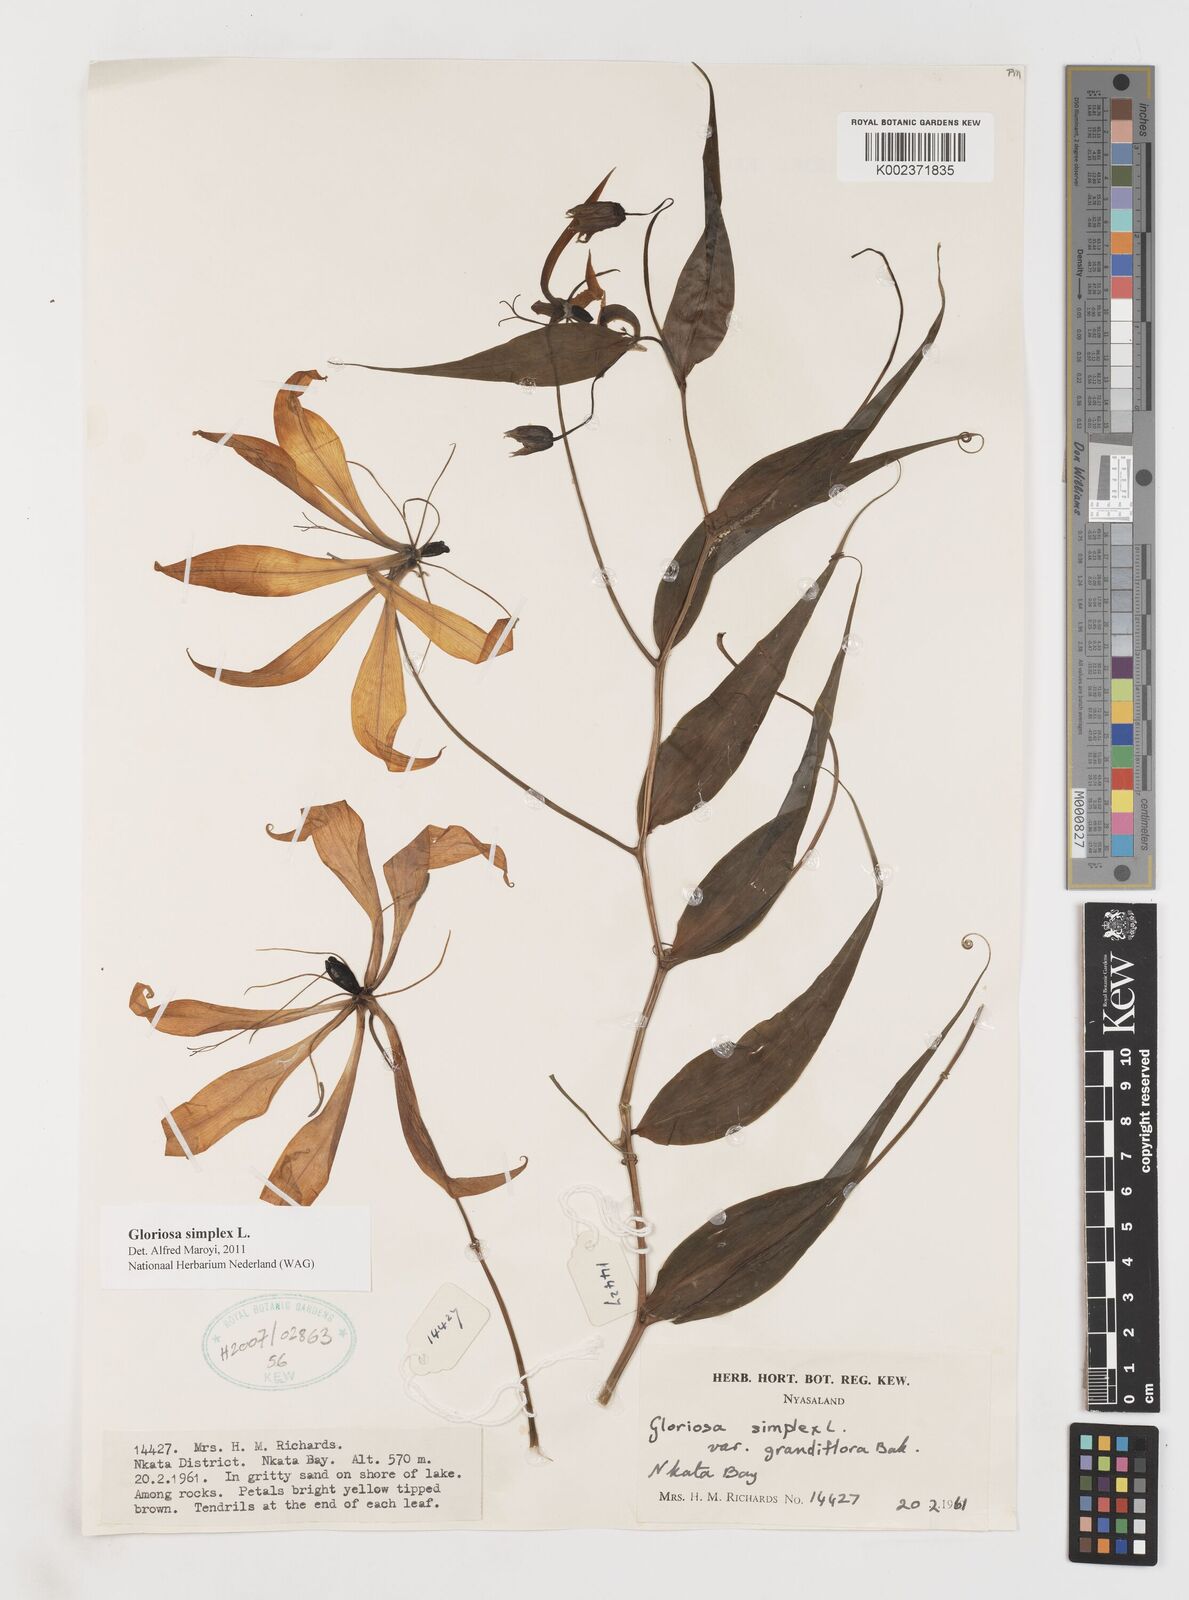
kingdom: Plantae
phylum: Tracheophyta
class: Liliopsida
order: Liliales
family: Colchicaceae
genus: Gloriosa
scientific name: Gloriosa simplex
